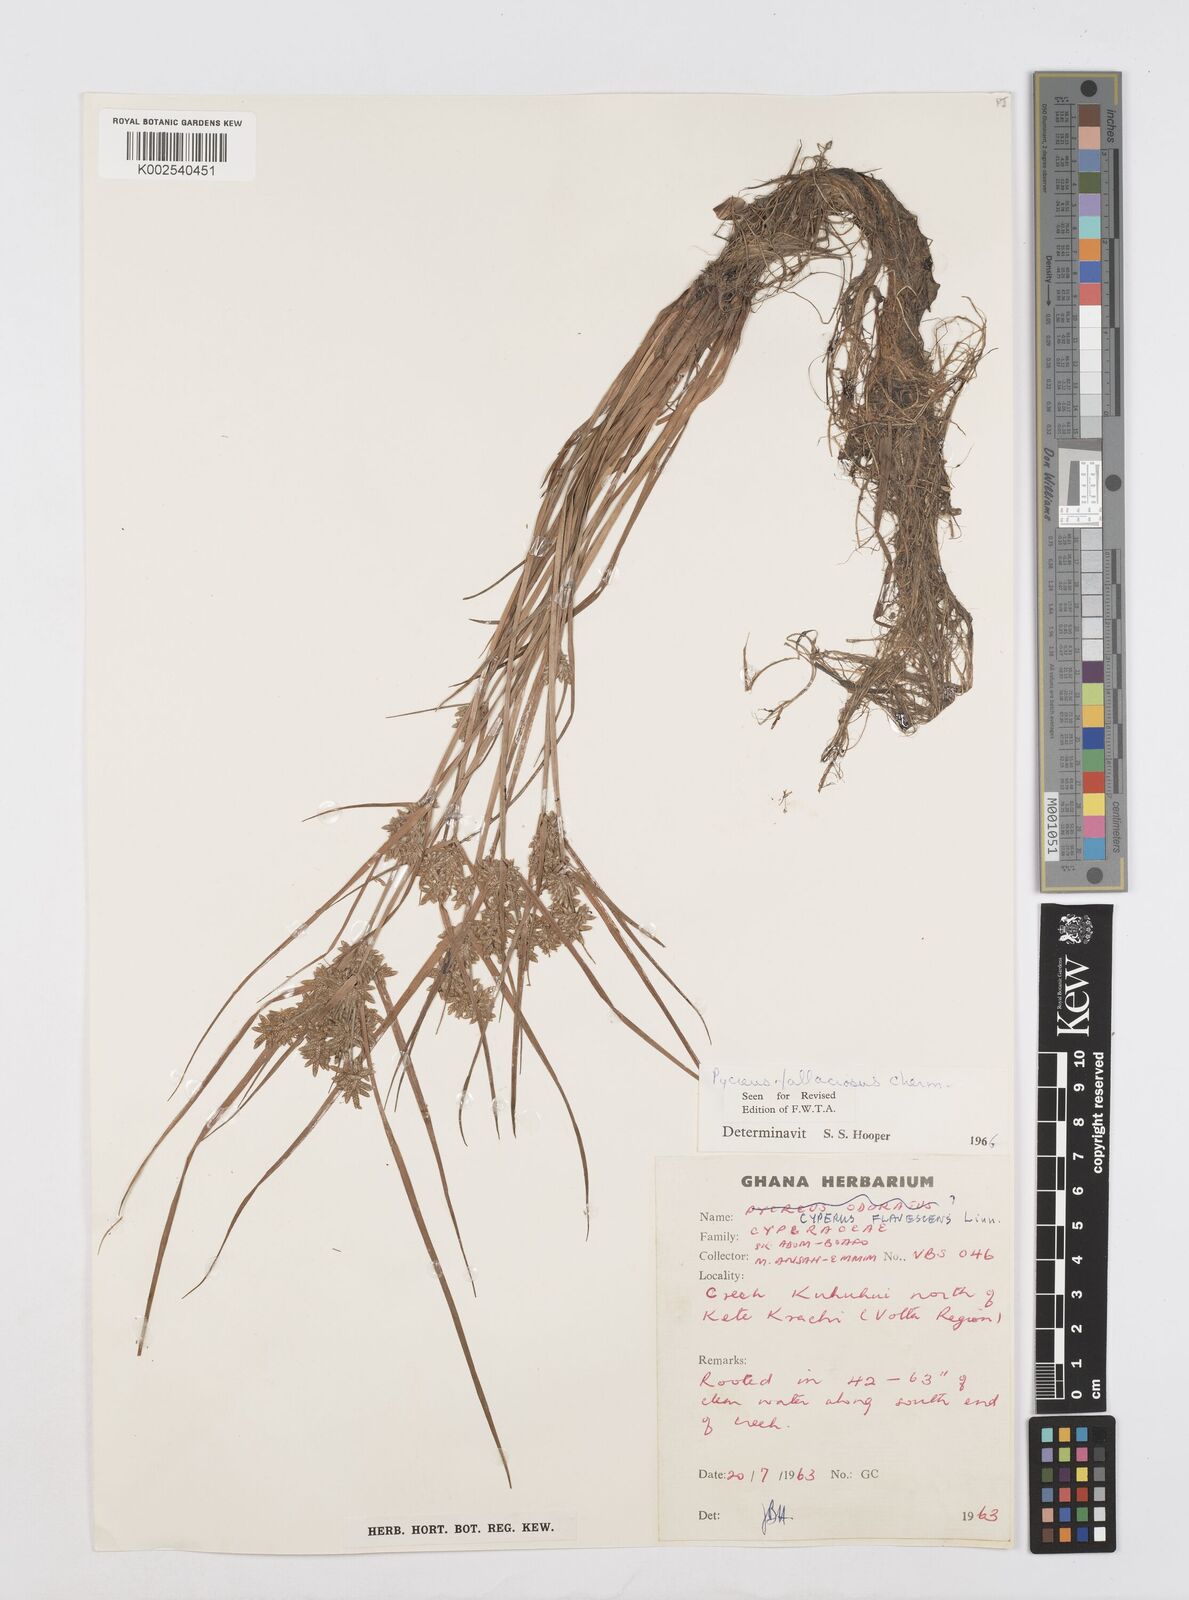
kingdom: Plantae
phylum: Tracheophyta
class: Liliopsida
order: Poales
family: Cyperaceae
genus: Cyperus
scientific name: Cyperus flavescens
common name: Yellow galingale
